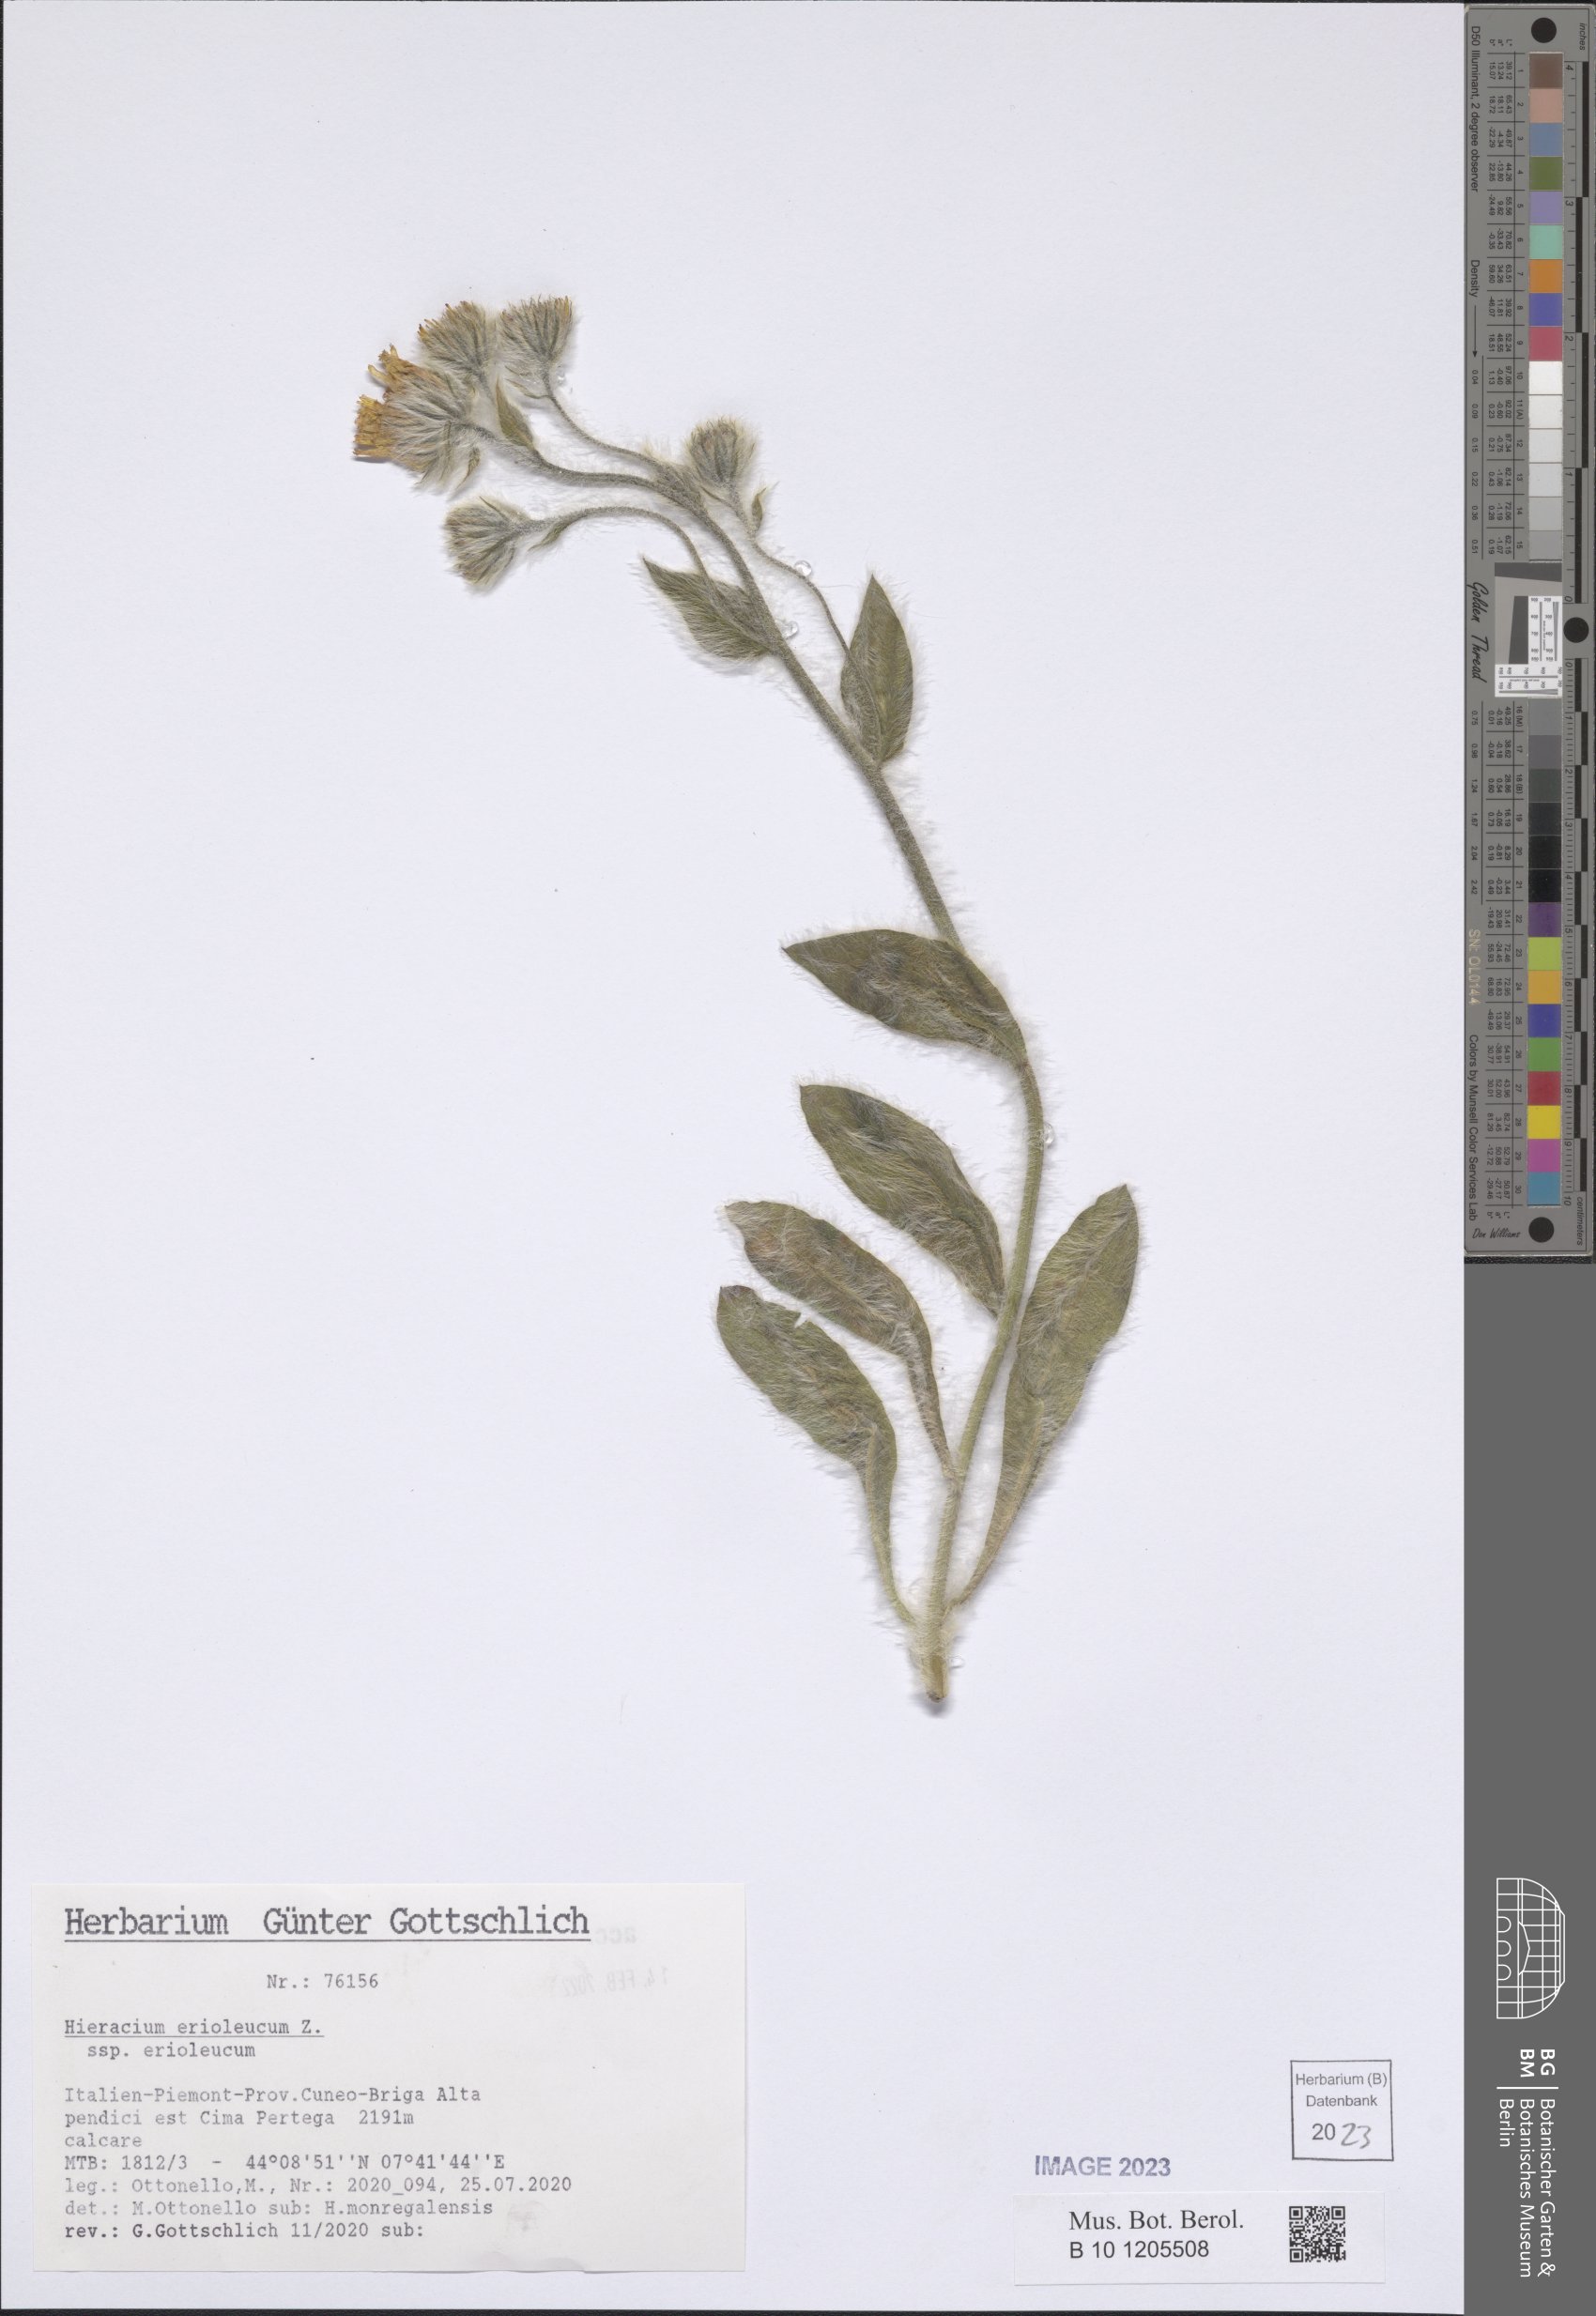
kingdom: Plantae
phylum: Tracheophyta
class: Magnoliopsida
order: Asterales
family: Asteraceae
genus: Hieracium
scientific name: Hieracium erioleucum
